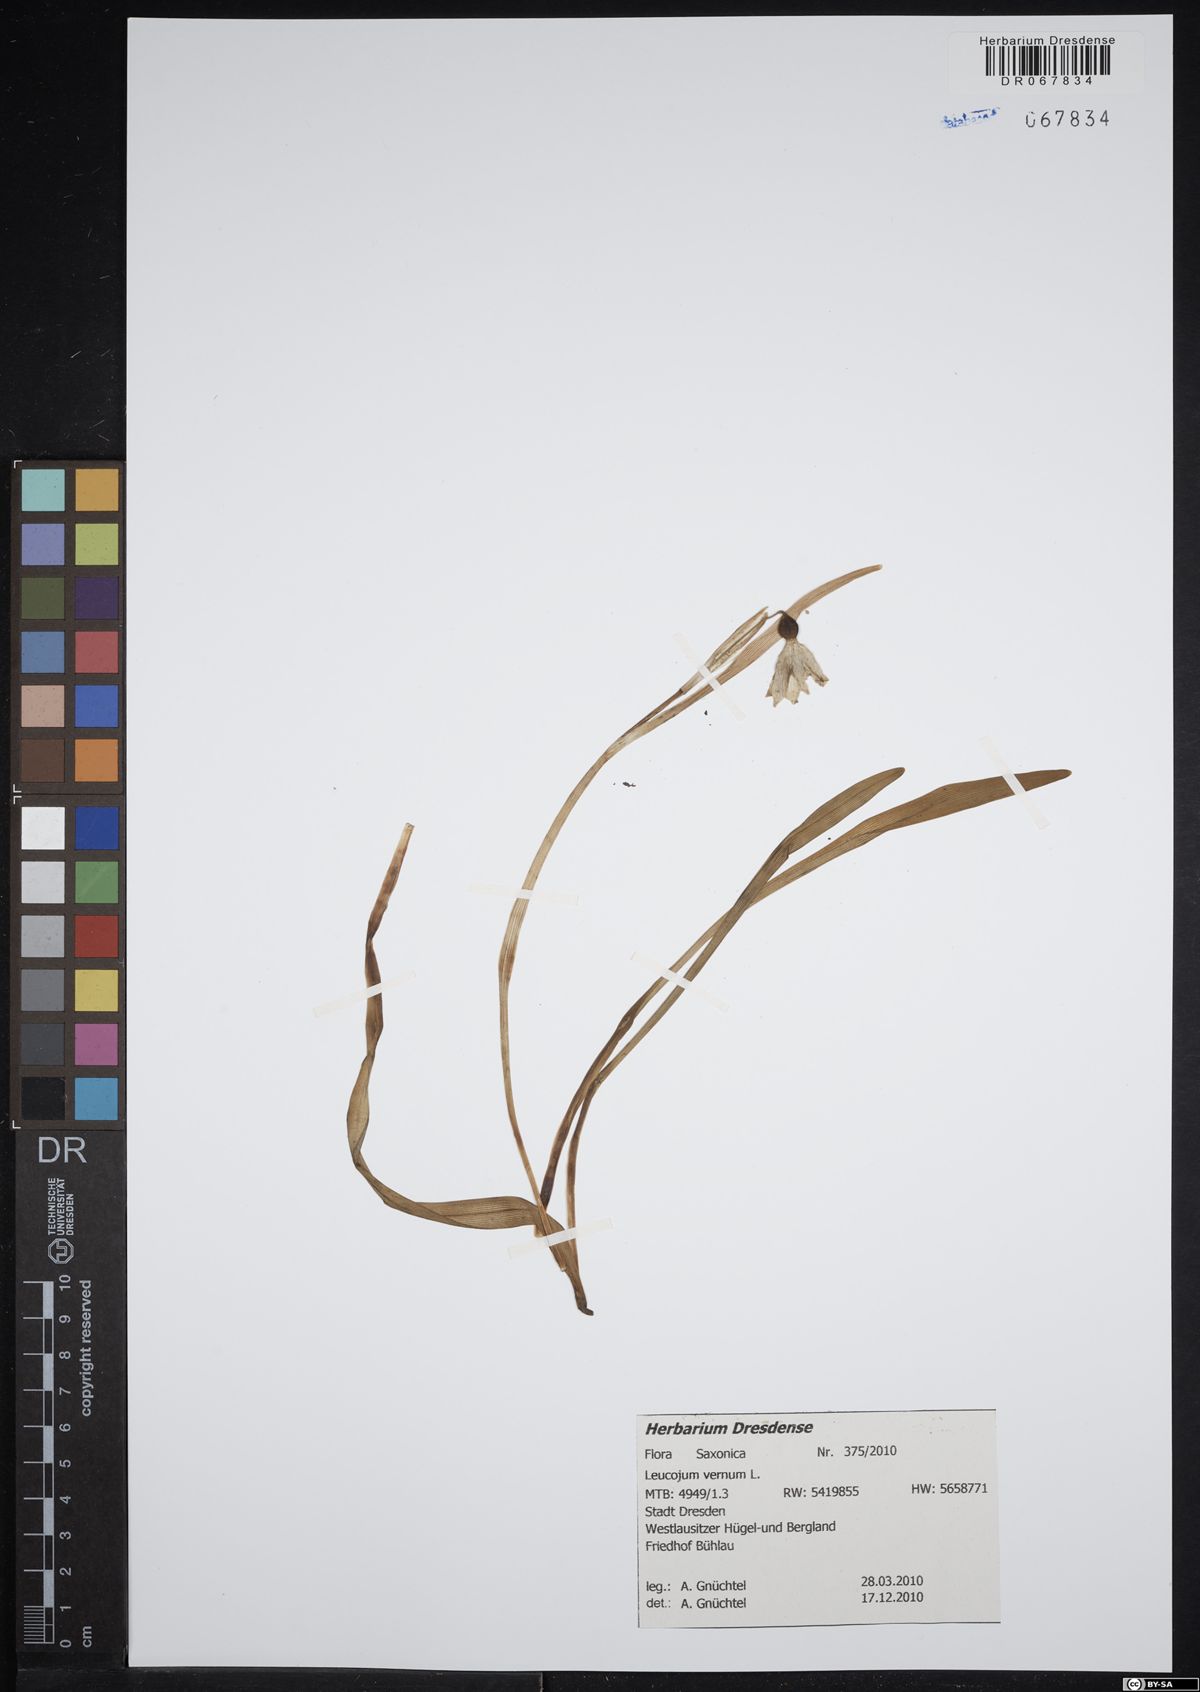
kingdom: Plantae
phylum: Tracheophyta
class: Liliopsida
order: Asparagales
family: Amaryllidaceae
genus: Leucojum
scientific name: Leucojum vernum
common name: Spring snowflake
